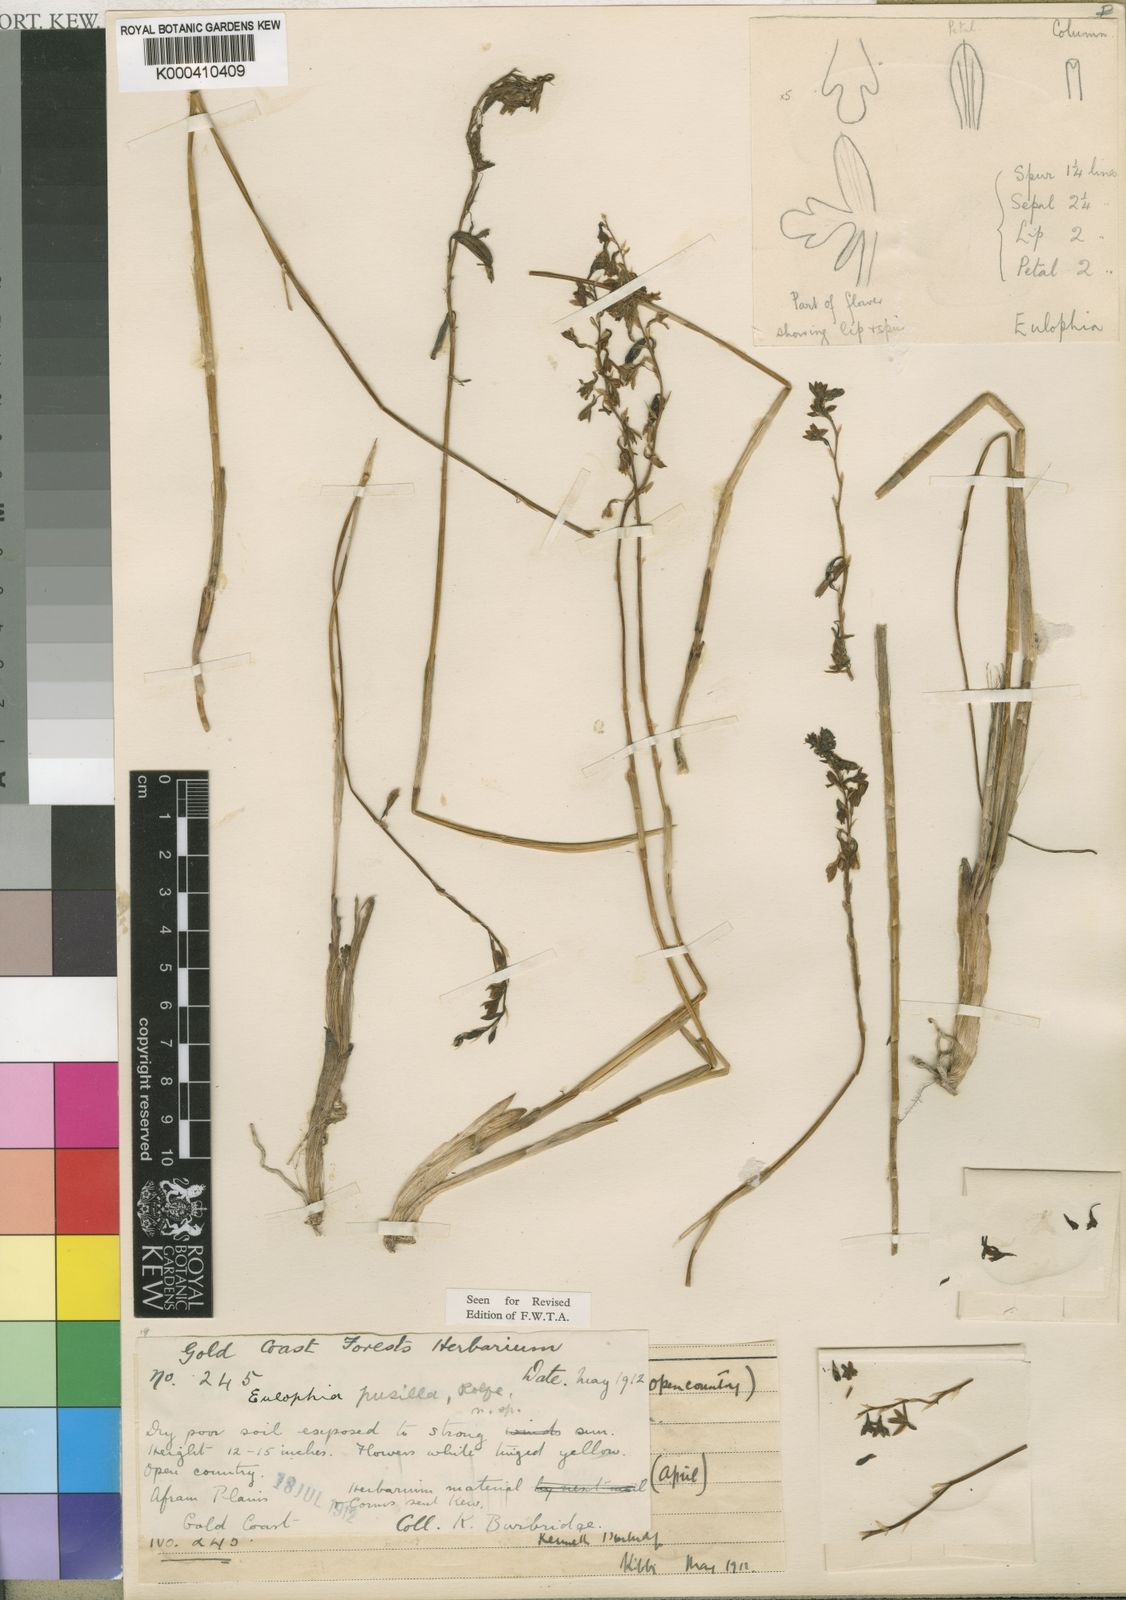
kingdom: Plantae
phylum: Tracheophyta
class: Liliopsida
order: Asparagales
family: Orchidaceae
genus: Eulophia
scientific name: Eulophia milnei
